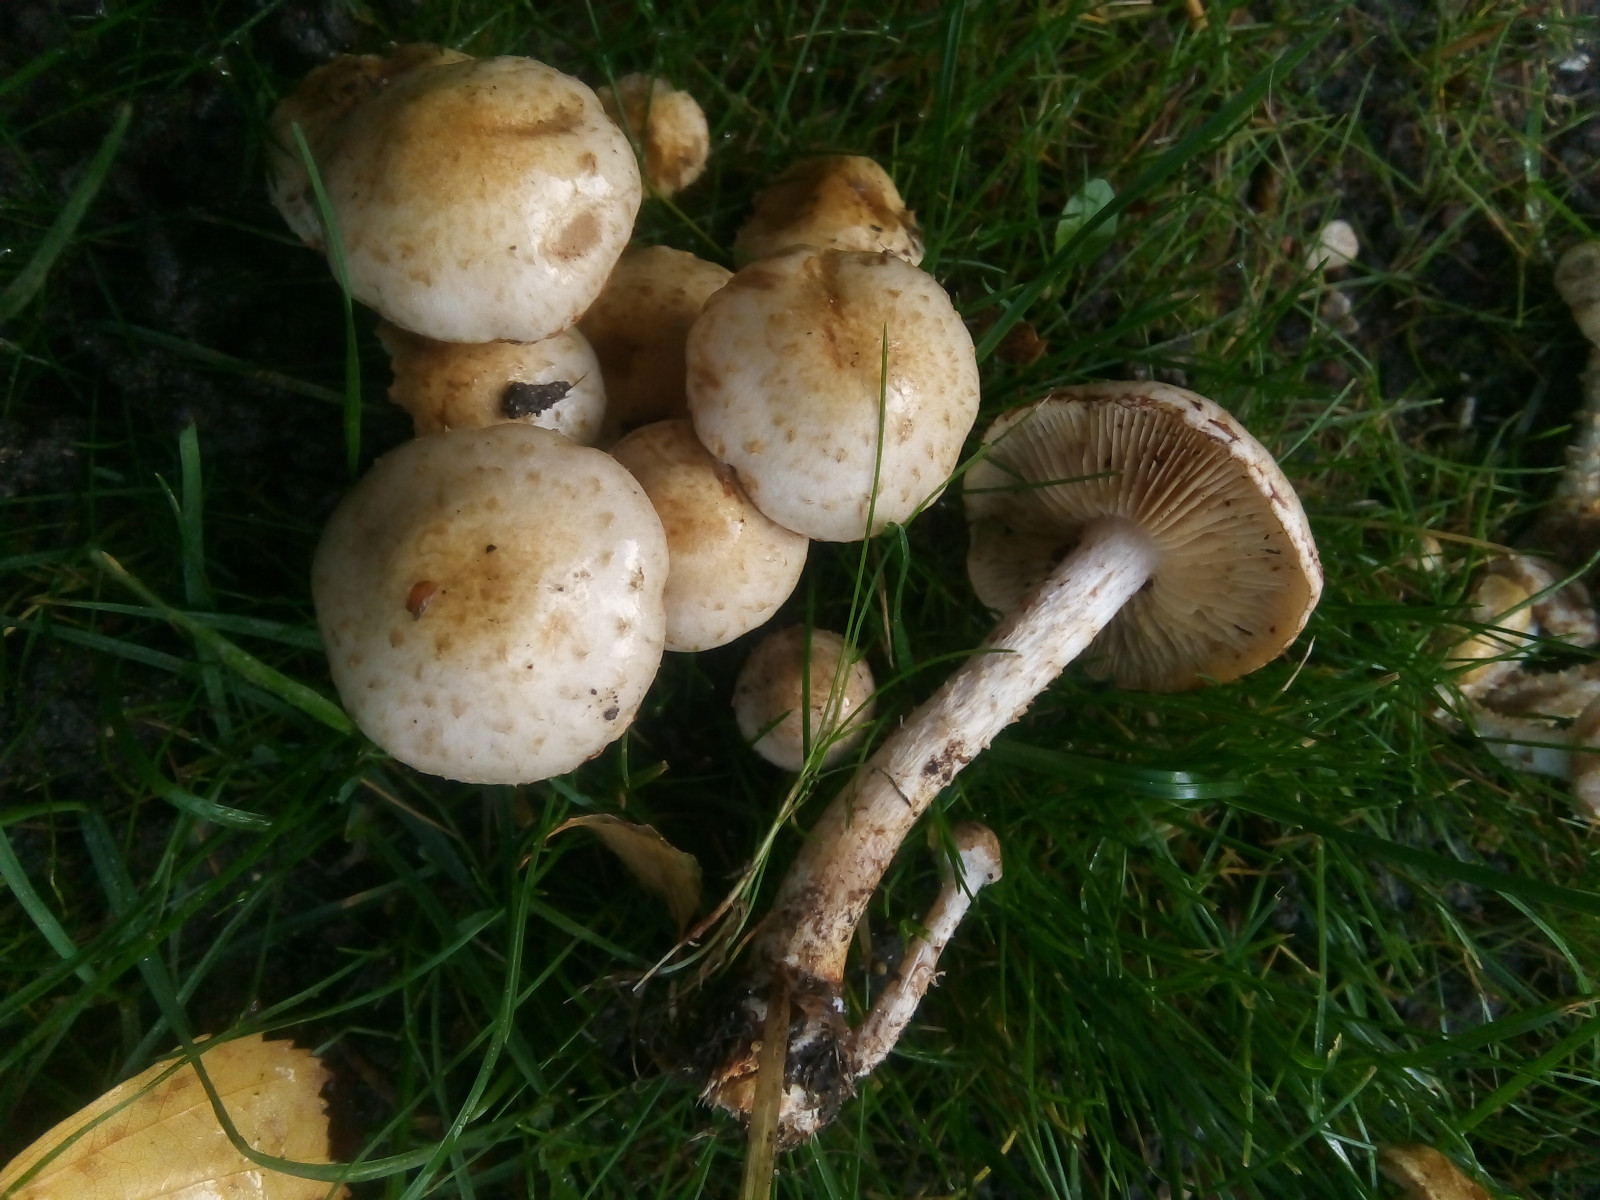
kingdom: Fungi
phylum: Basidiomycota
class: Agaricomycetes
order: Agaricales
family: Strophariaceae
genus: Pholiota
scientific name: Pholiota gummosa
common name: grøngul skælhat
